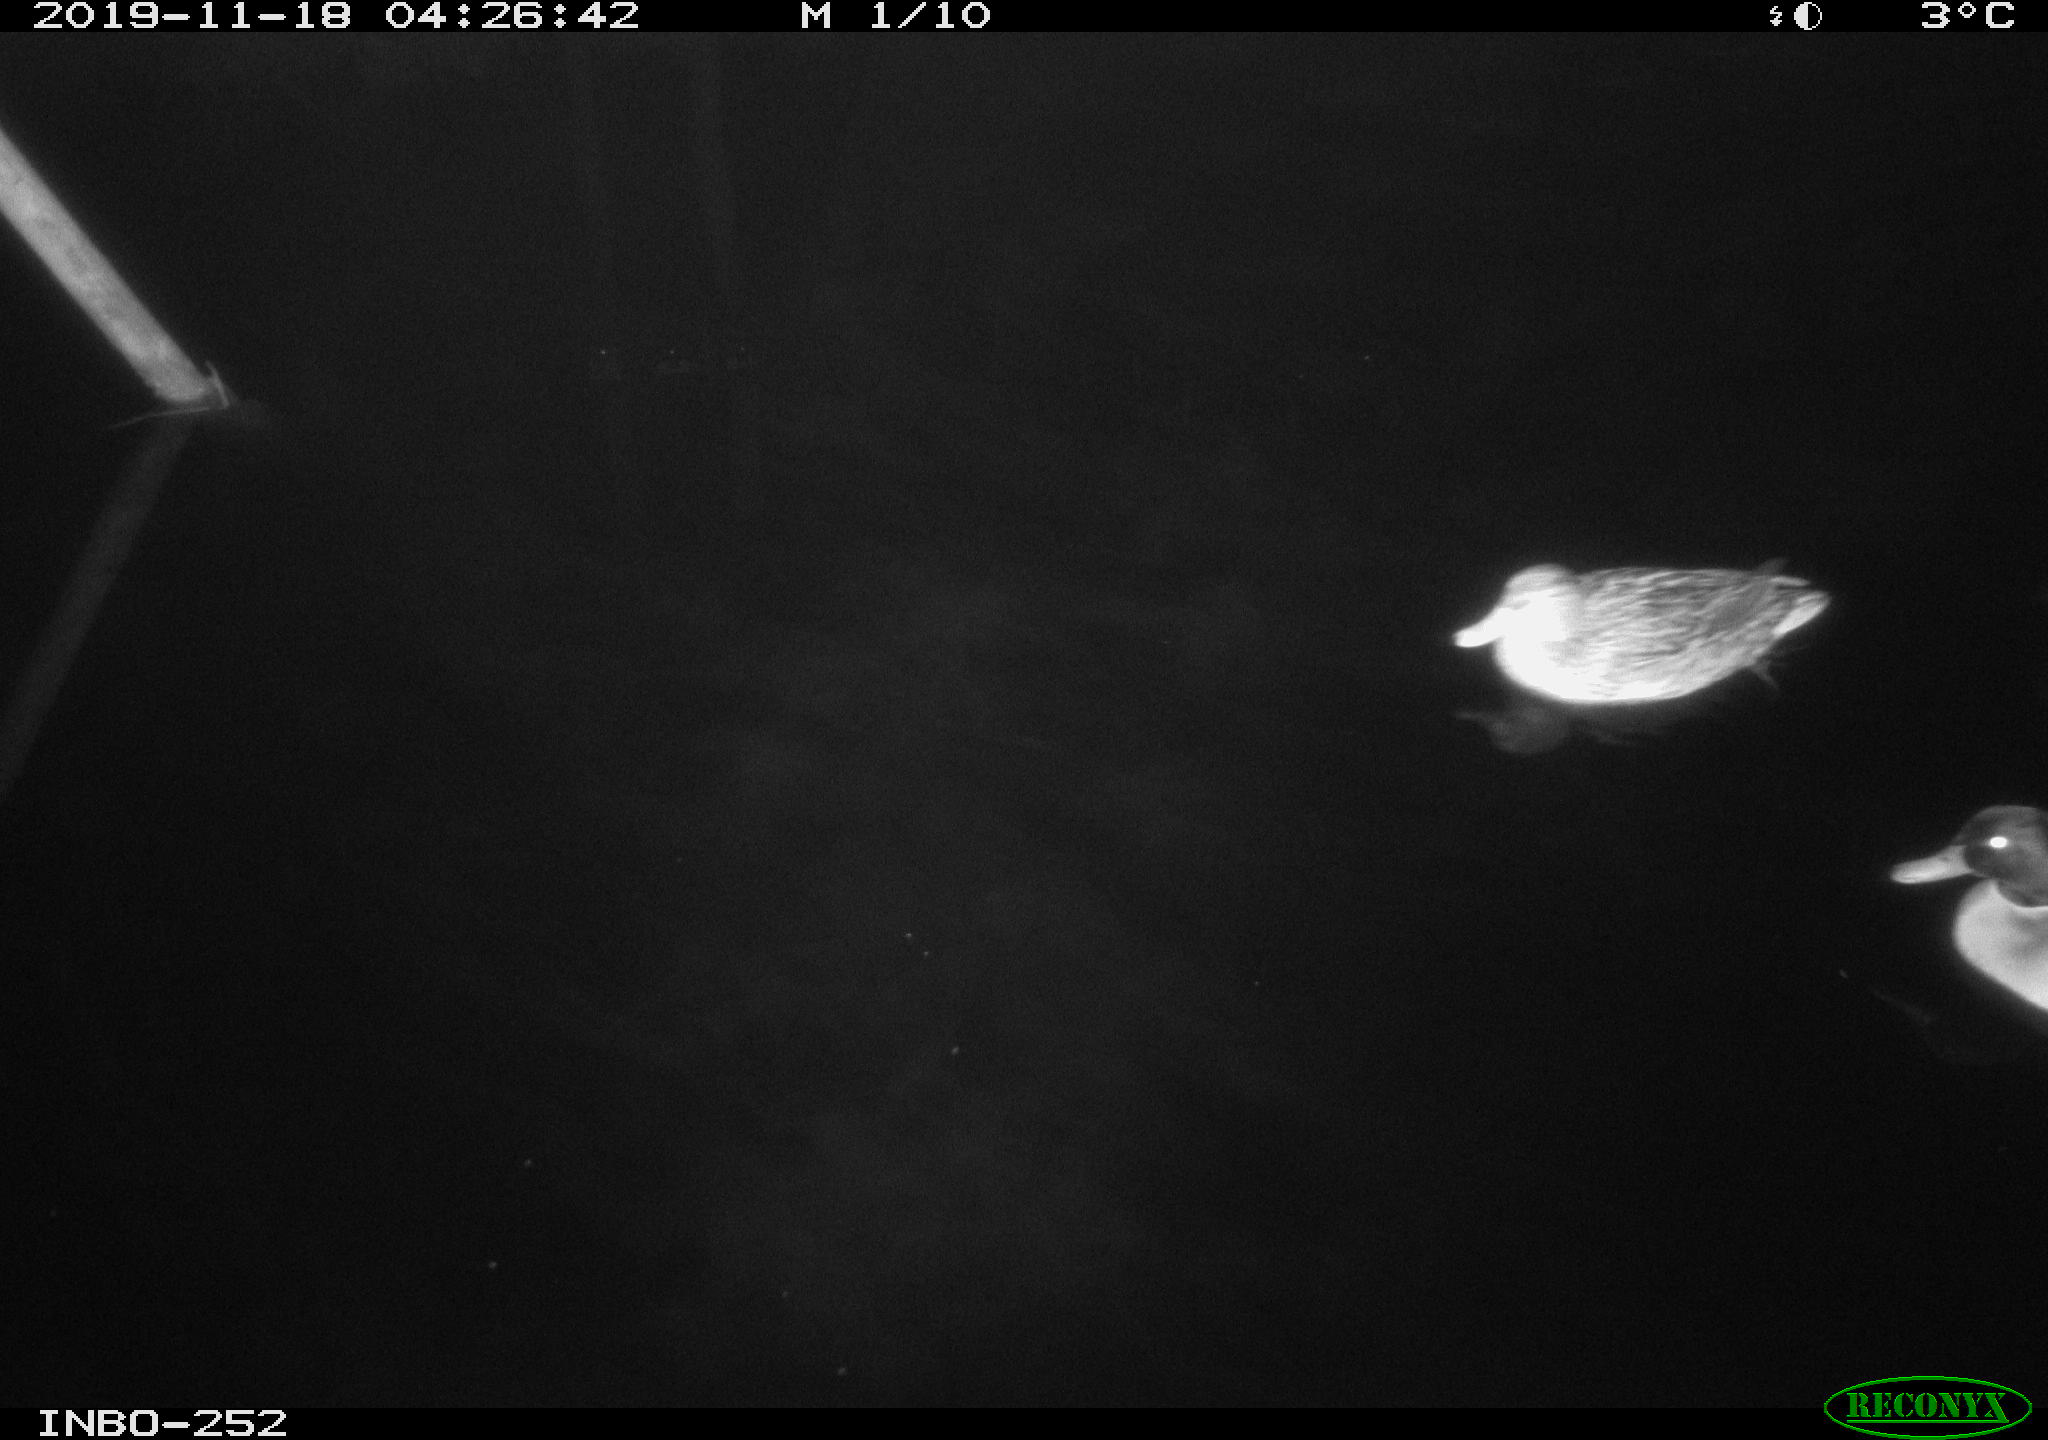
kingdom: Animalia
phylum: Chordata
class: Aves
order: Anseriformes
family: Anatidae
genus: Anas
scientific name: Anas platyrhynchos
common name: Mallard
